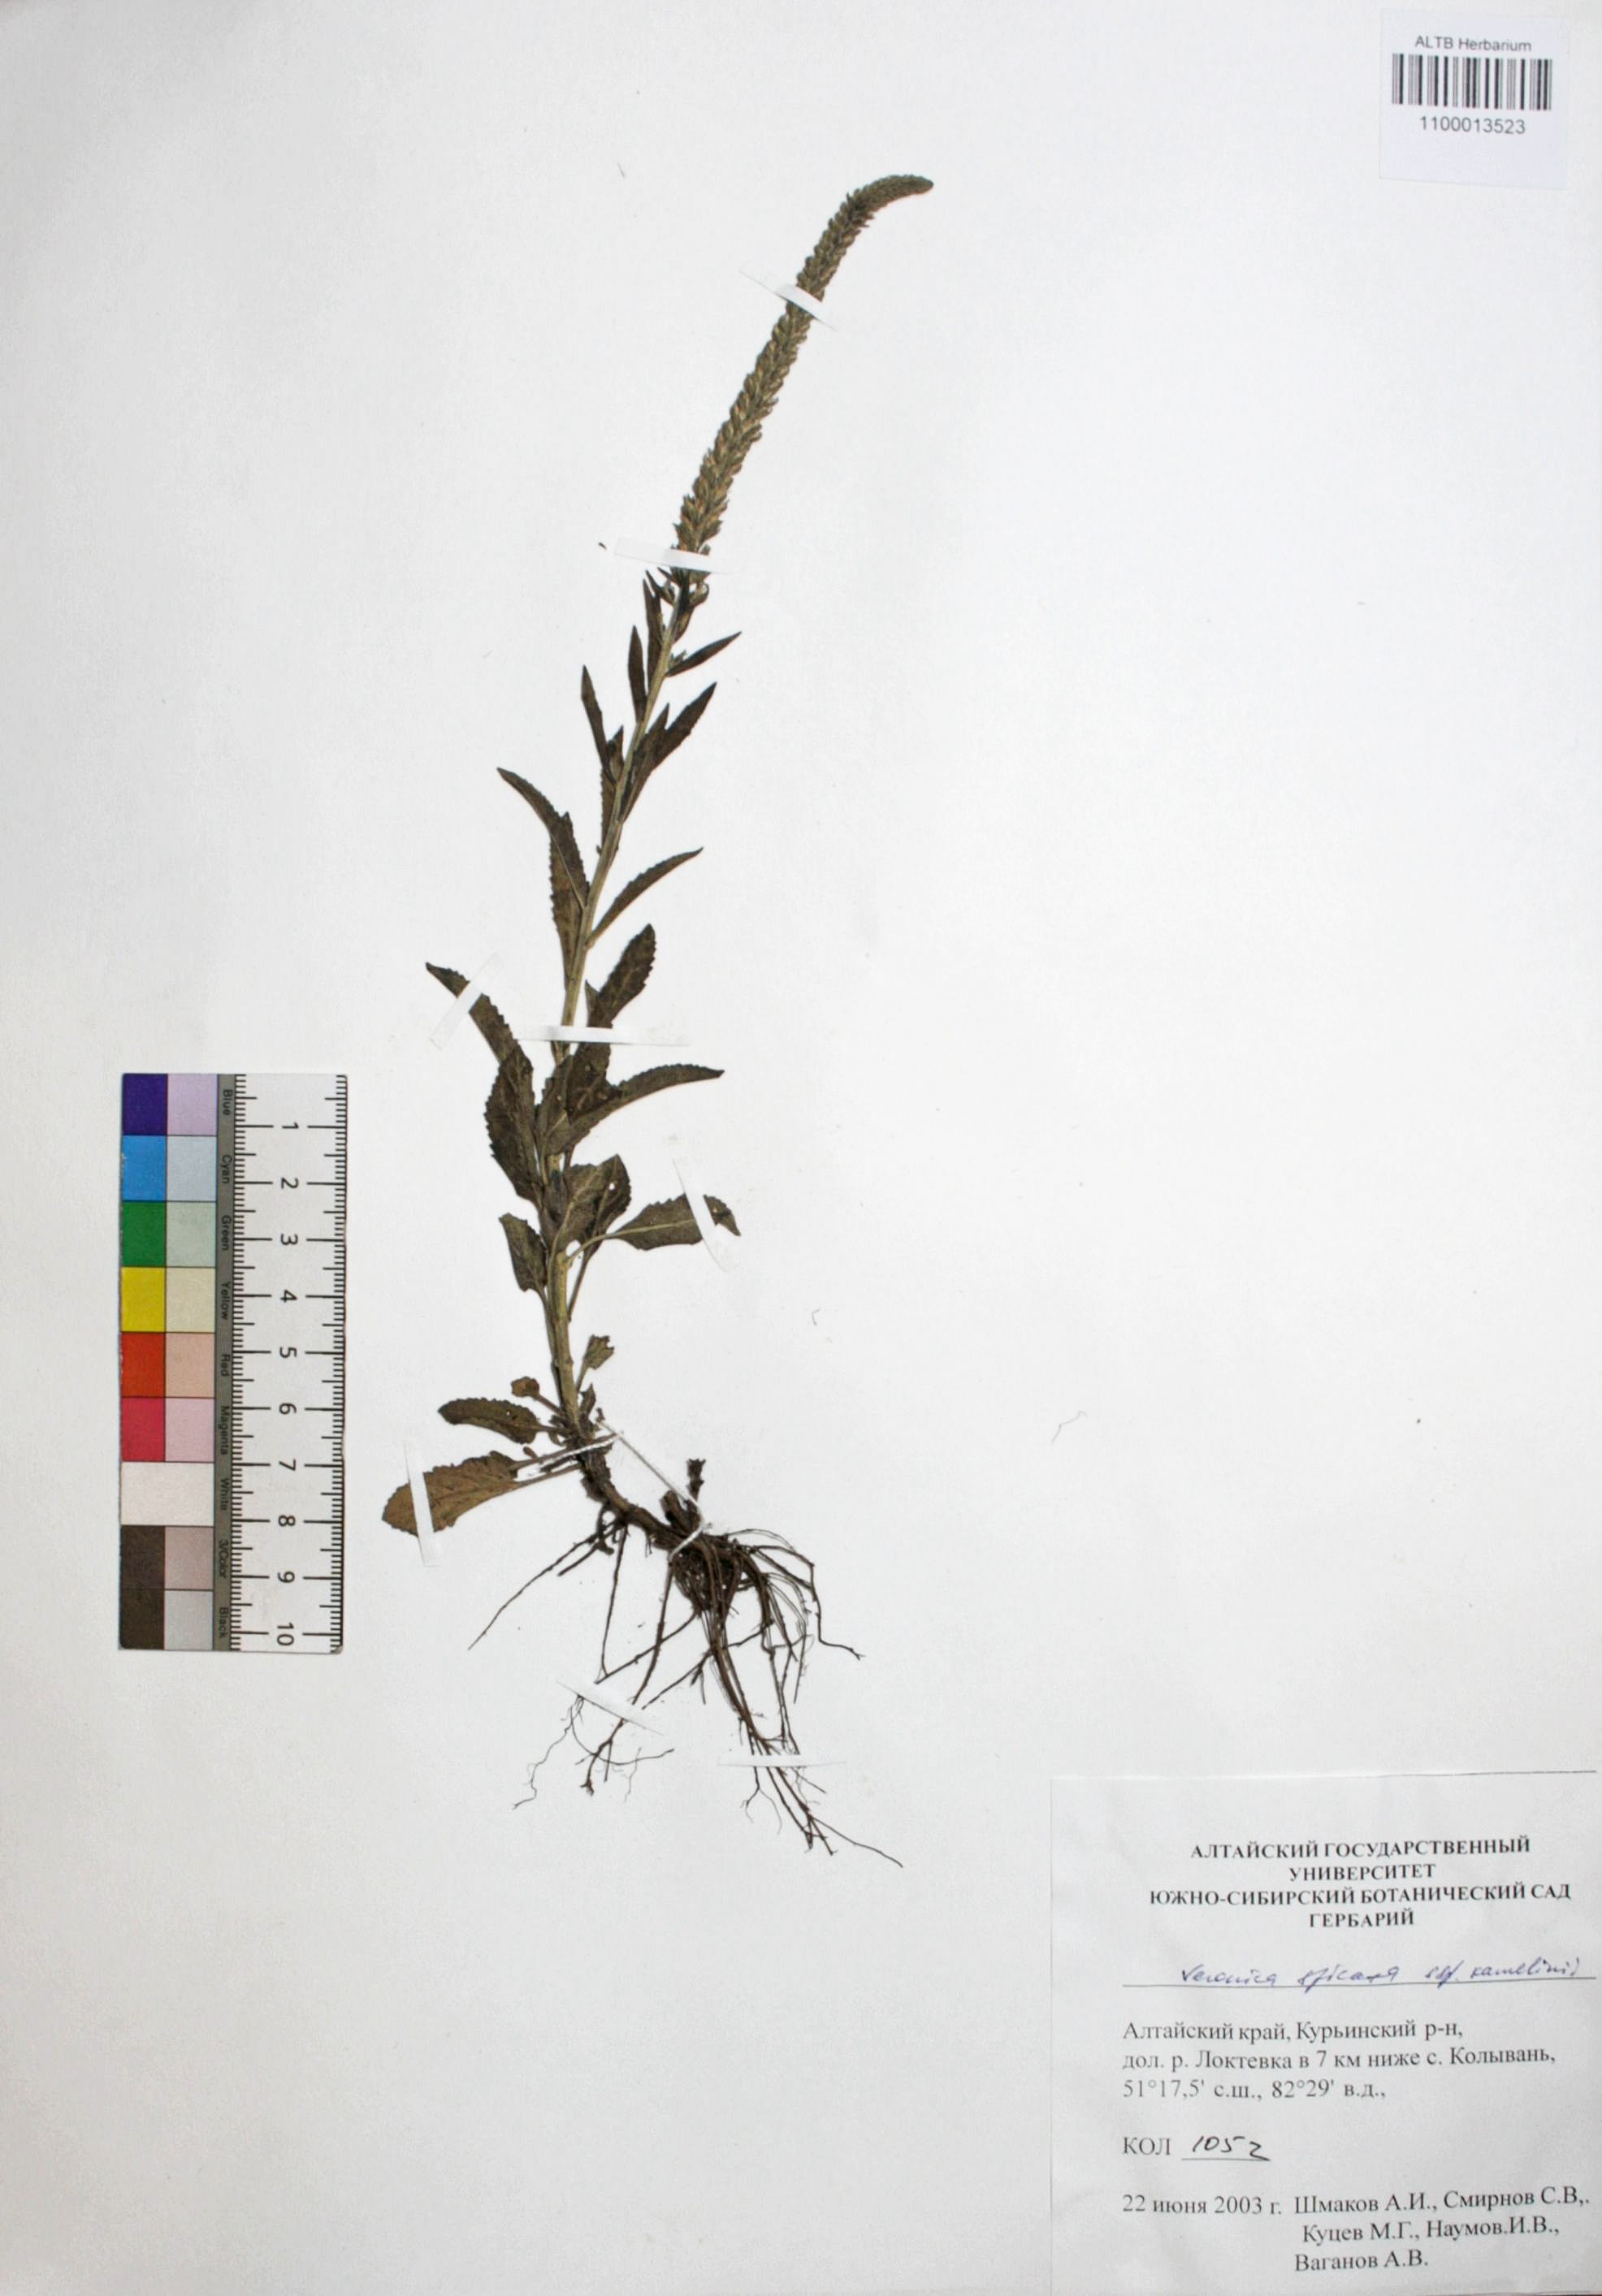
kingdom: Plantae
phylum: Tracheophyta
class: Magnoliopsida
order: Lamiales
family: Plantaginaceae
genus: Veronica
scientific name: Veronica spicata
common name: Spiked speedwell
